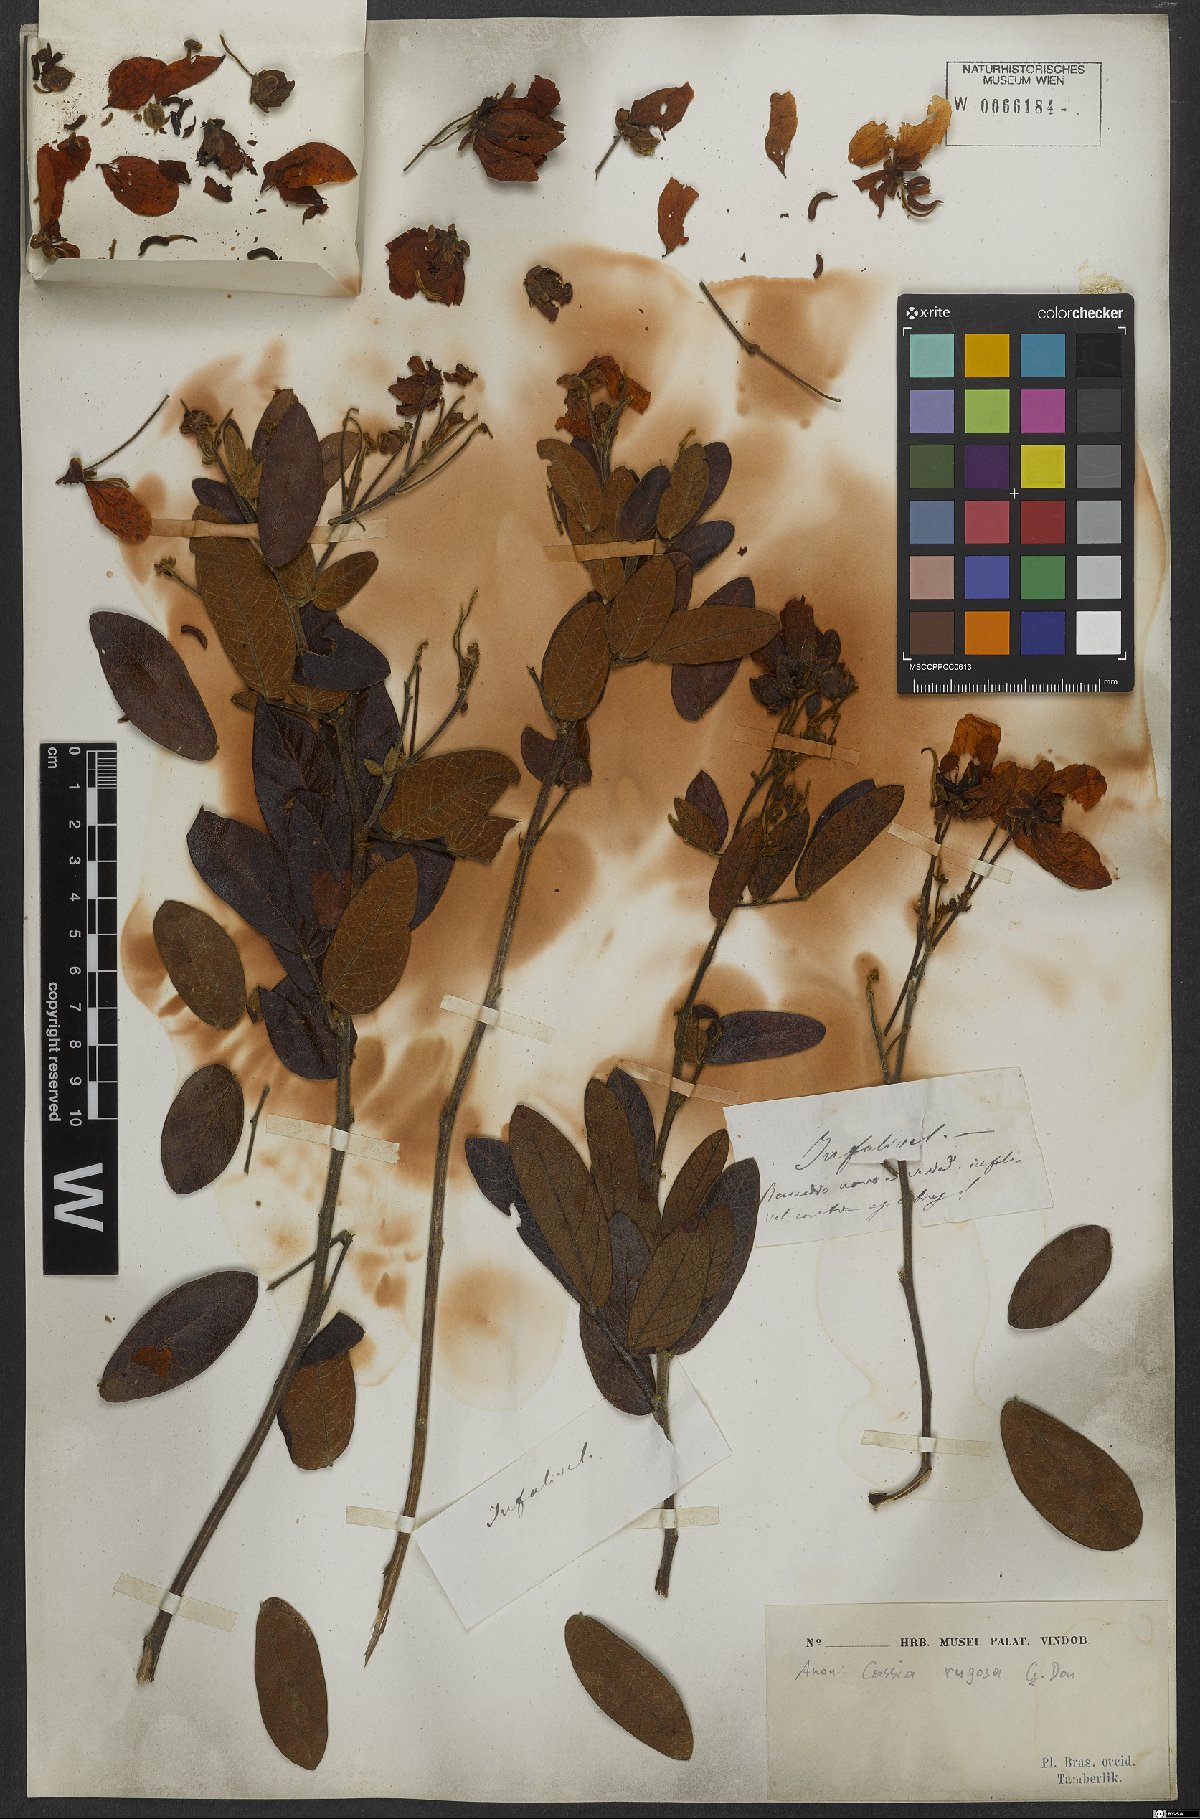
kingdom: Plantae
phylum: Tracheophyta
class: Magnoliopsida
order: Fabales
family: Fabaceae
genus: Senna
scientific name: Senna rugosa
